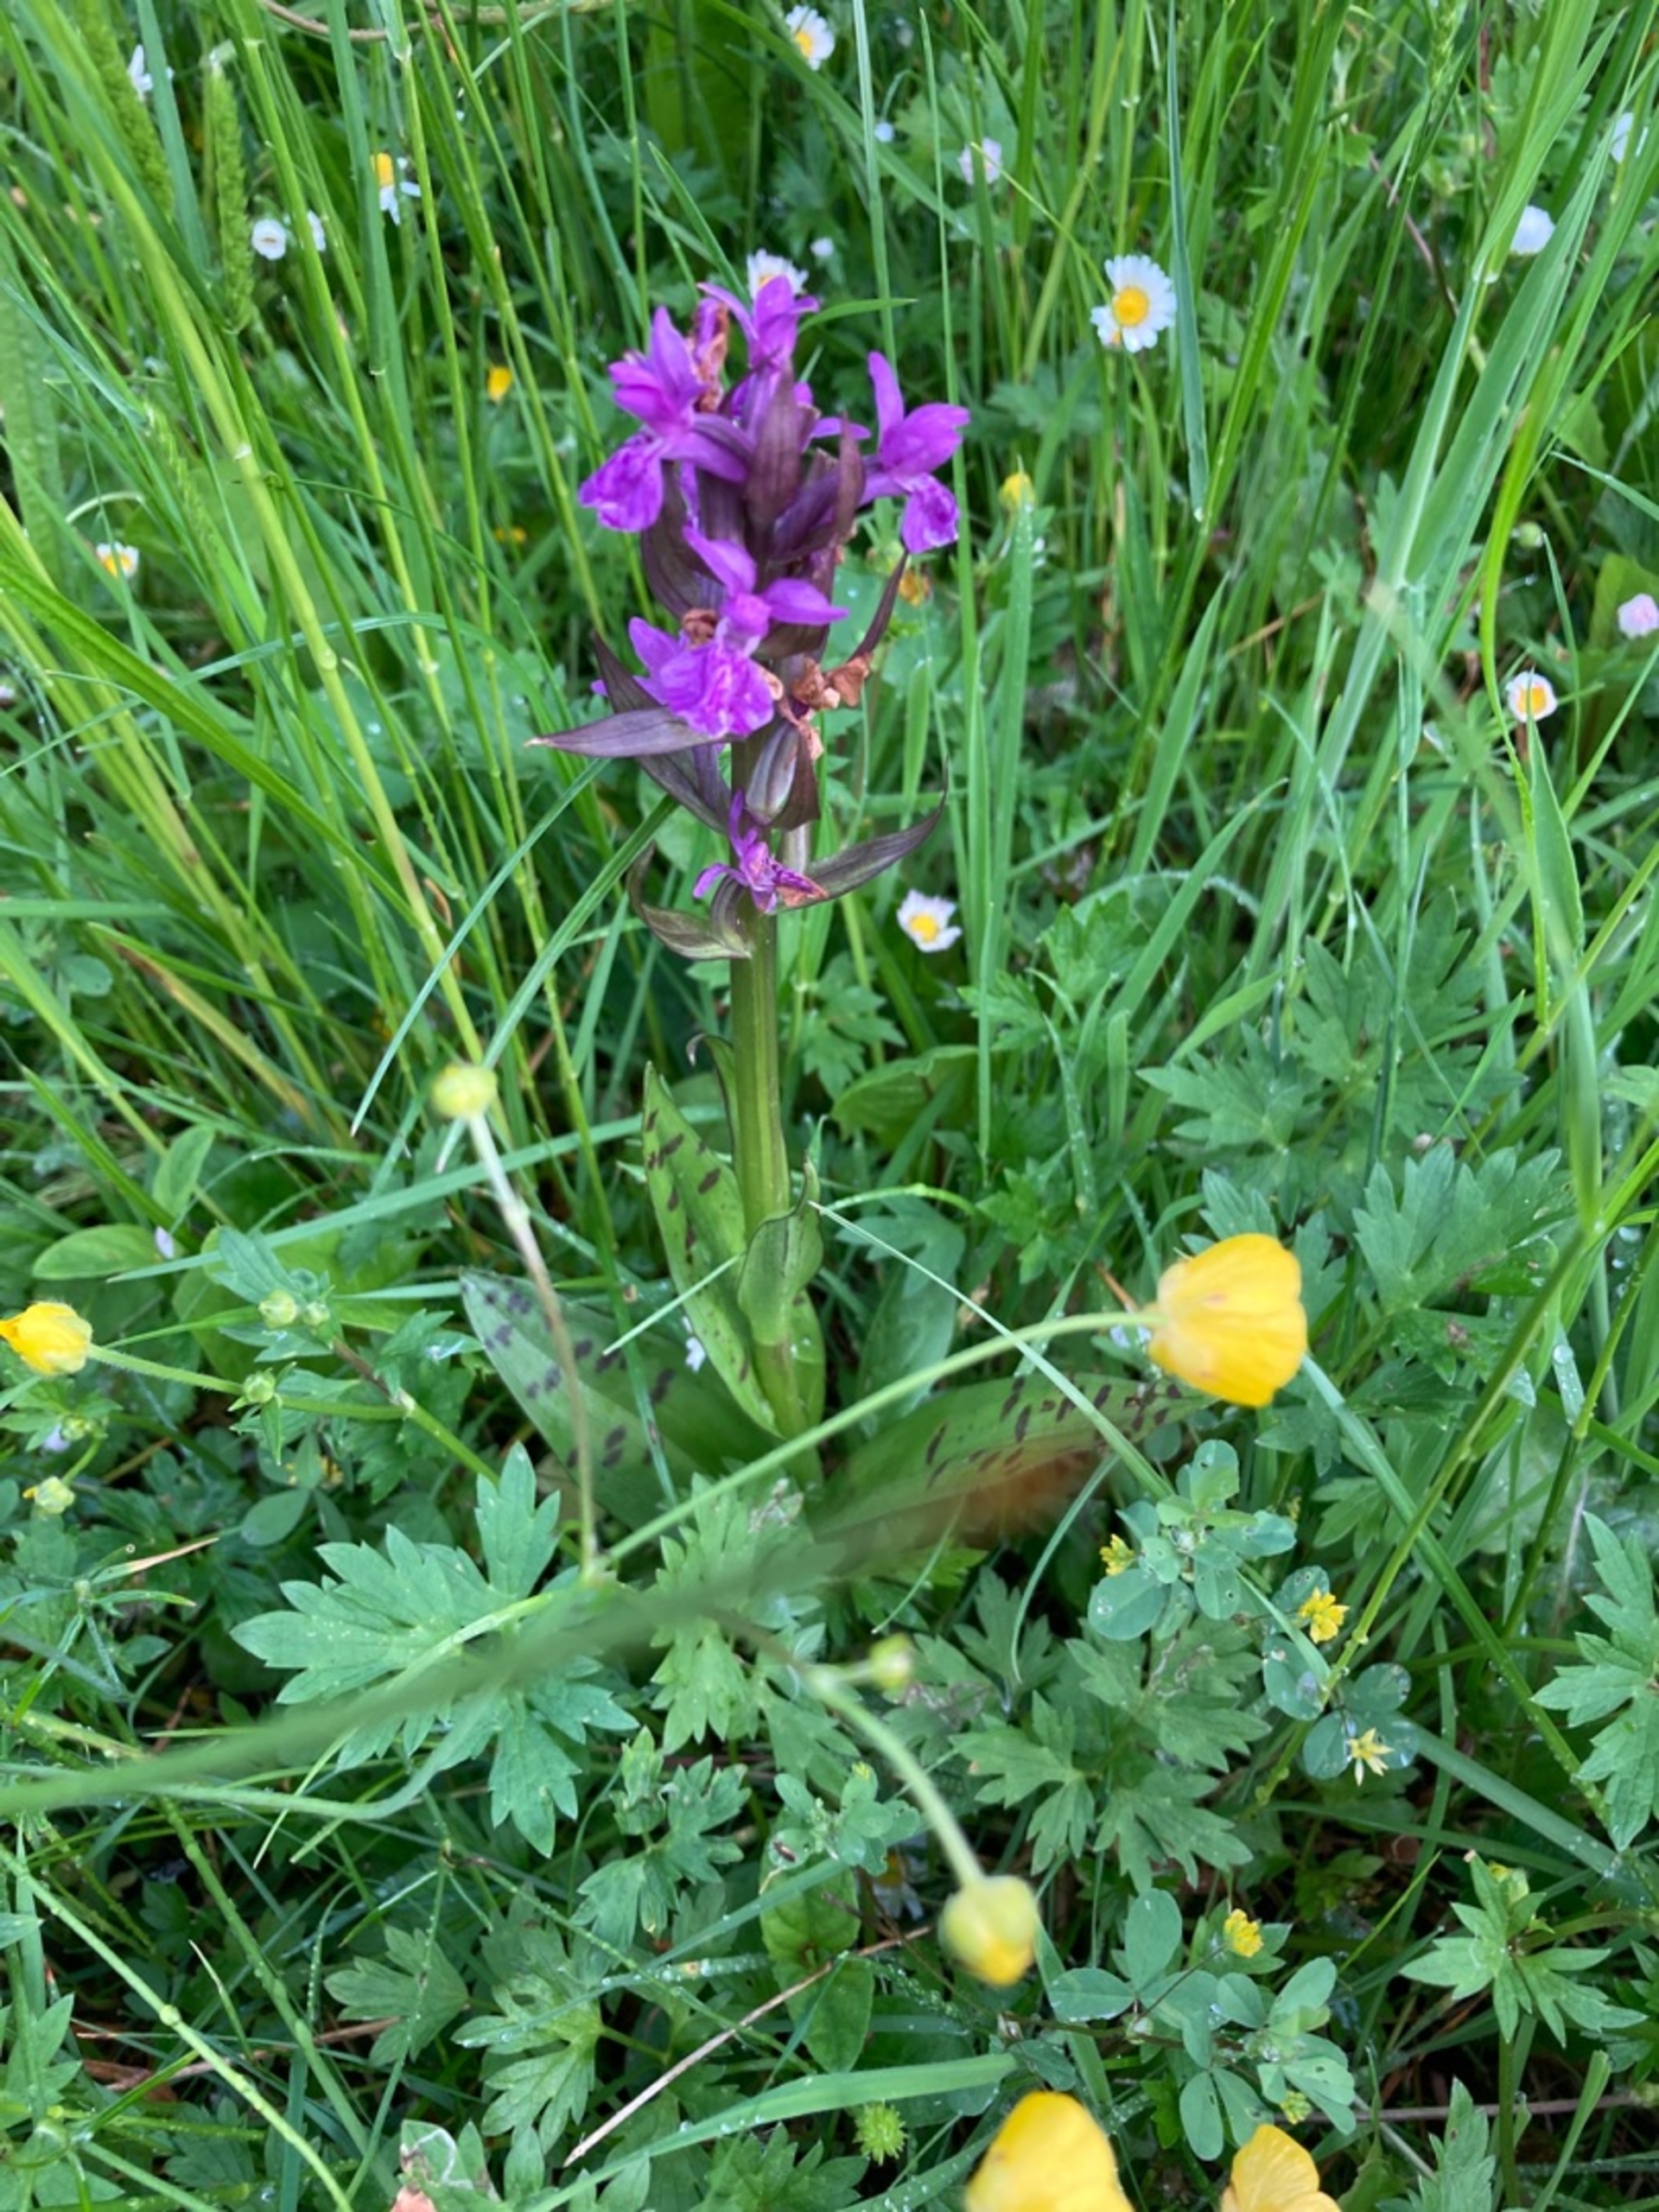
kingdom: Plantae
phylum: Tracheophyta
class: Liliopsida
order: Asparagales
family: Orchidaceae
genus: Dactylorhiza
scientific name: Dactylorhiza majalis
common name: Maj-gøgeurt
